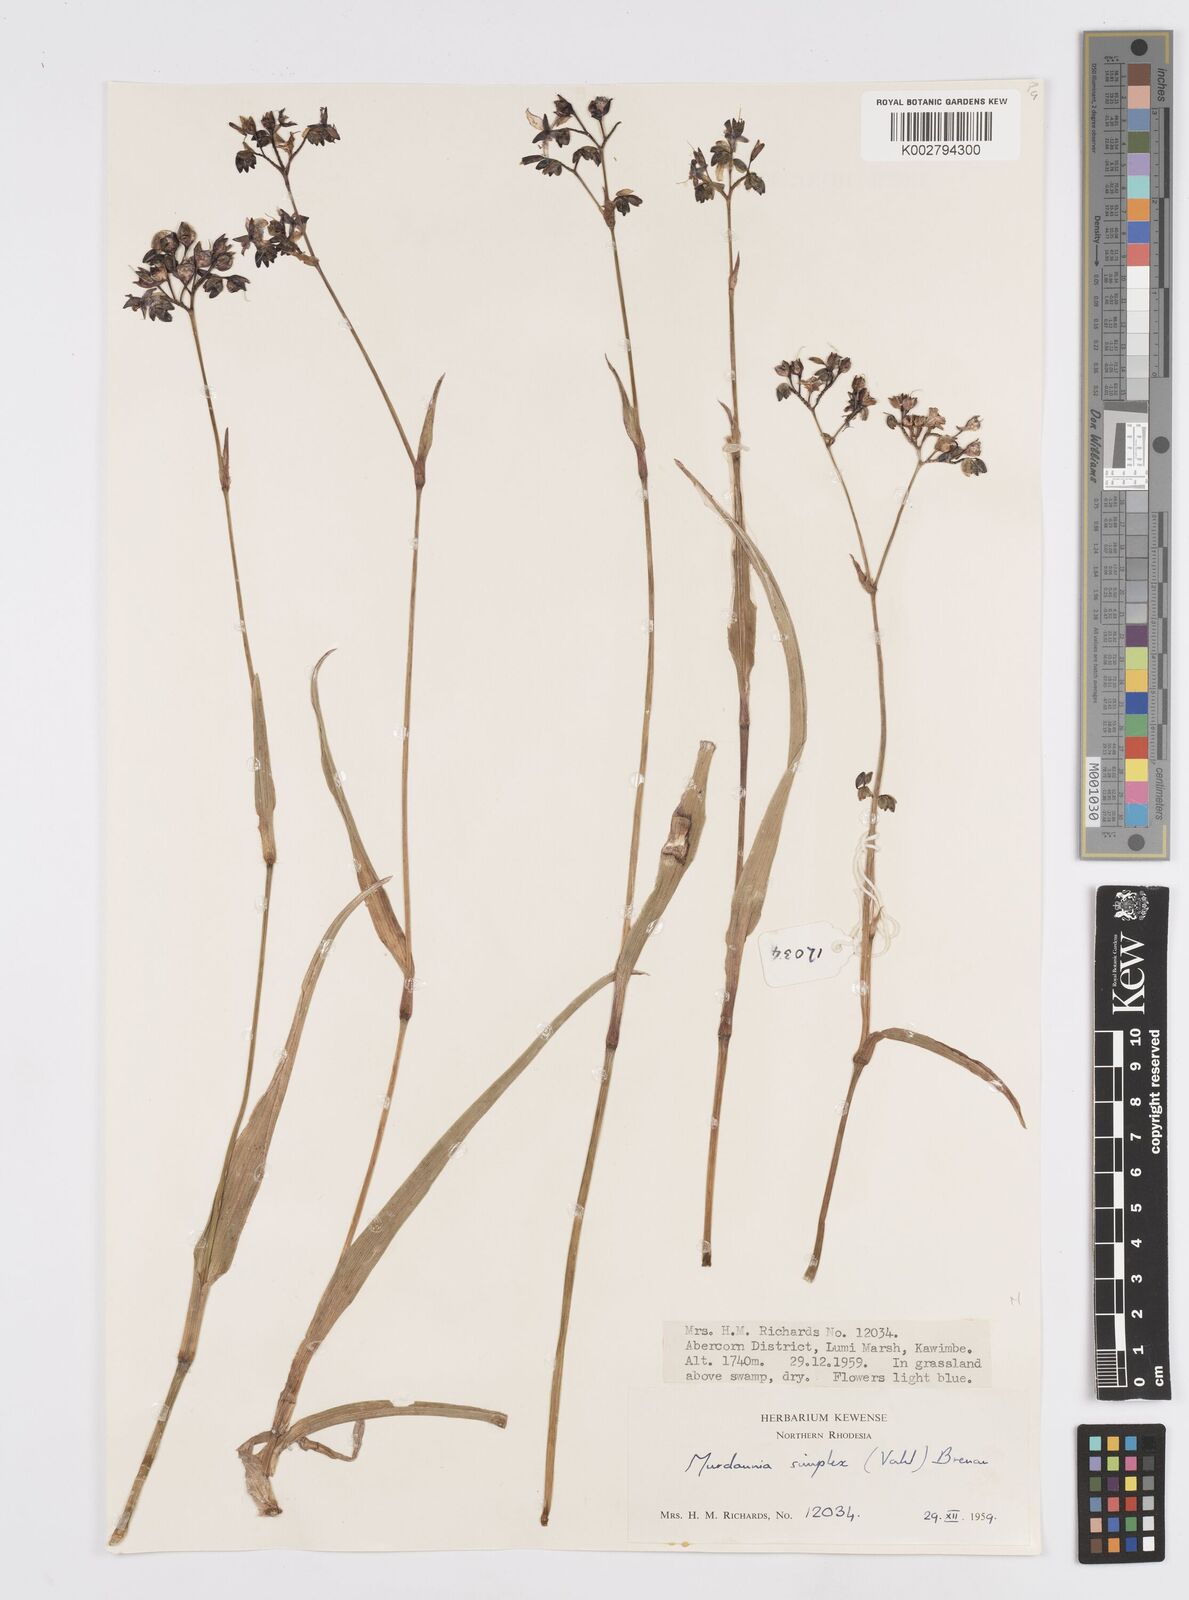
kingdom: Plantae
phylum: Tracheophyta
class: Liliopsida
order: Commelinales
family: Commelinaceae
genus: Murdannia
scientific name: Murdannia simplex
